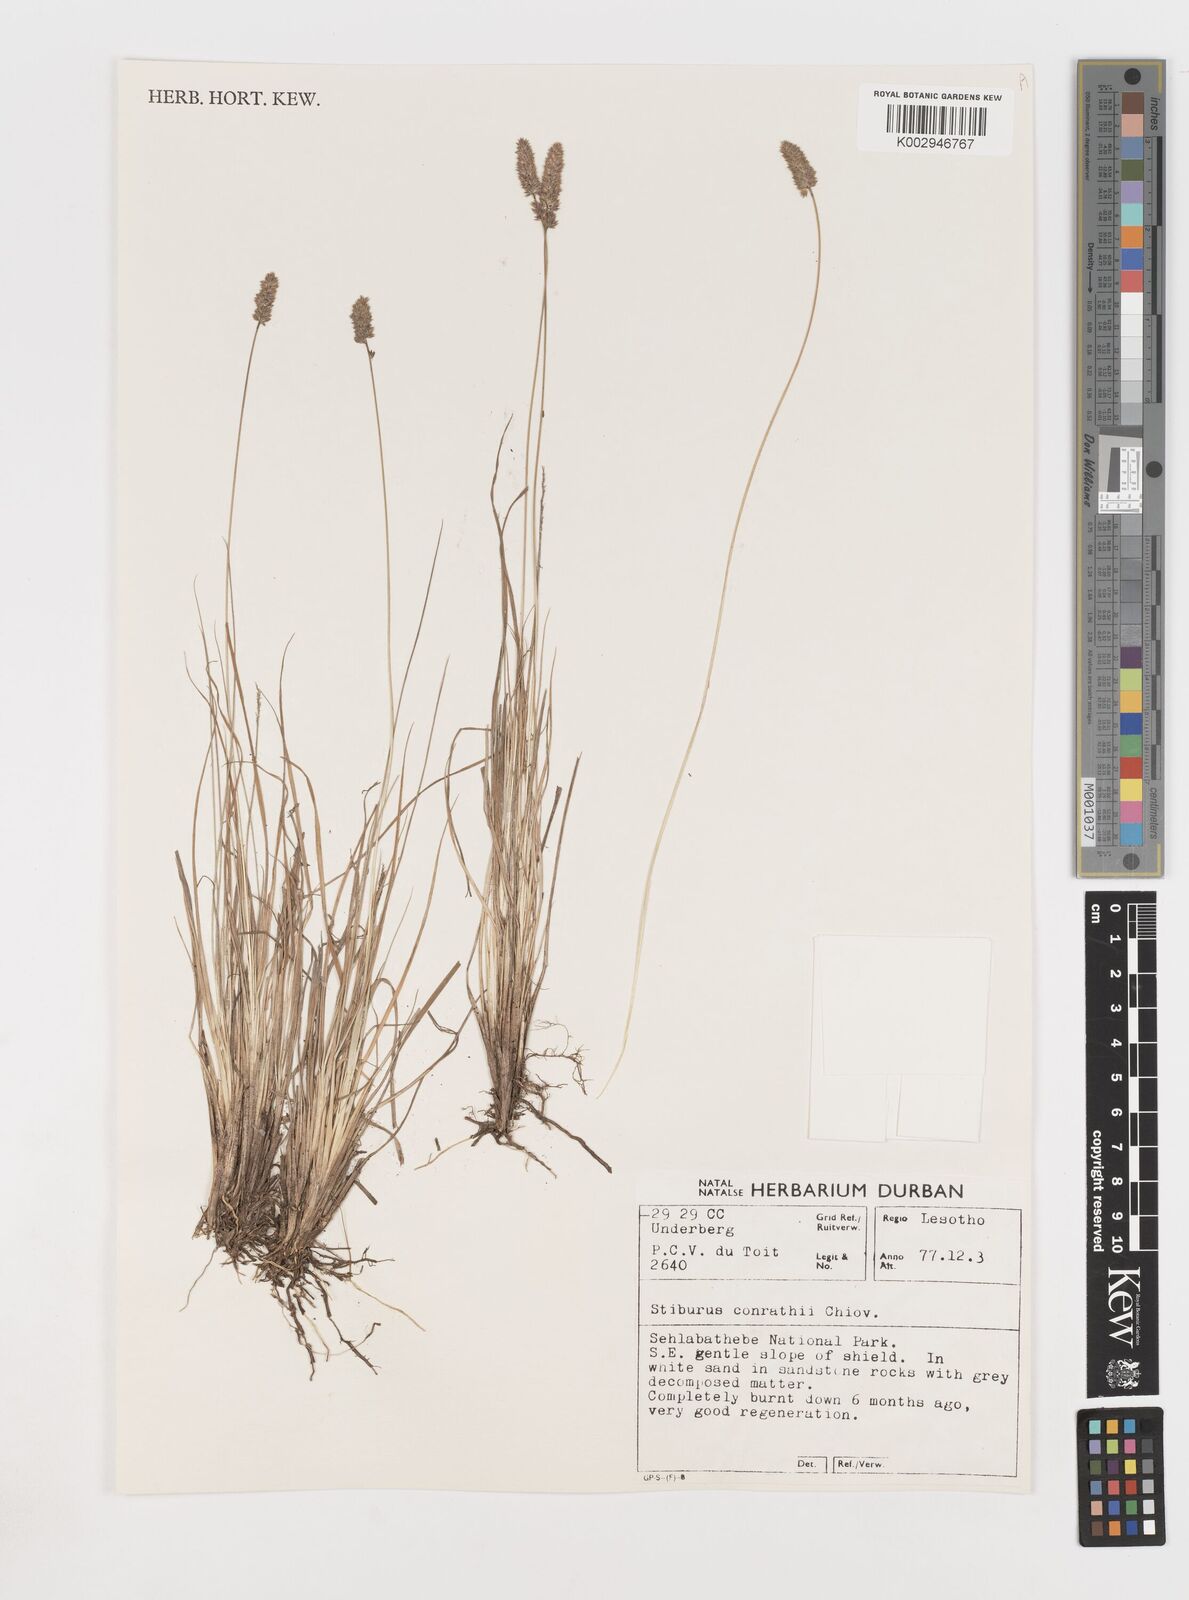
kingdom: Plantae
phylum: Tracheophyta
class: Liliopsida
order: Poales
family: Poaceae
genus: Stiburus
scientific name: Stiburus conrathii
